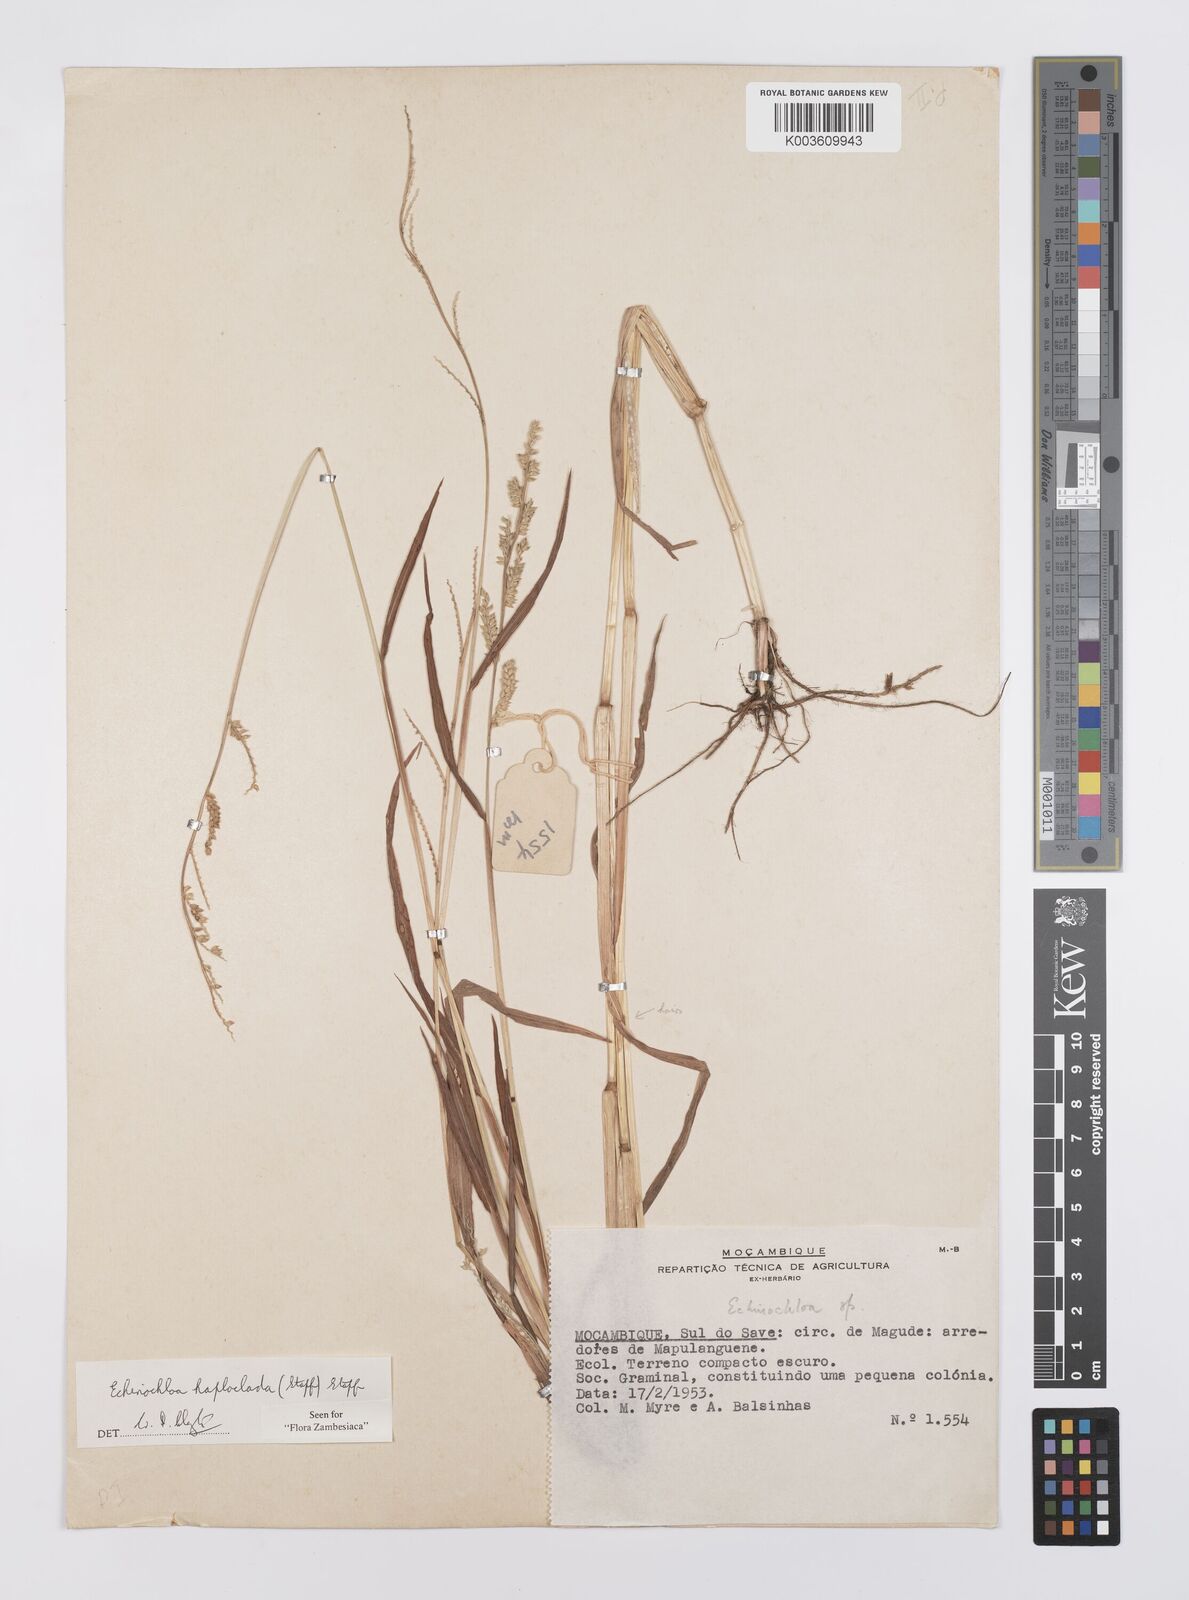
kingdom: Plantae
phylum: Tracheophyta
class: Liliopsida
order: Poales
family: Poaceae
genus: Echinochloa
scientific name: Echinochloa haploclada
